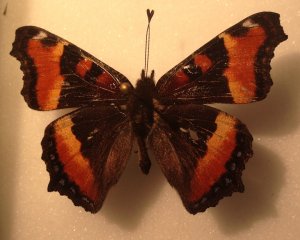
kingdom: Animalia
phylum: Arthropoda
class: Insecta
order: Lepidoptera
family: Nymphalidae
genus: Aglais
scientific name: Aglais milberti
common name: Milbert's Tortoiseshell
